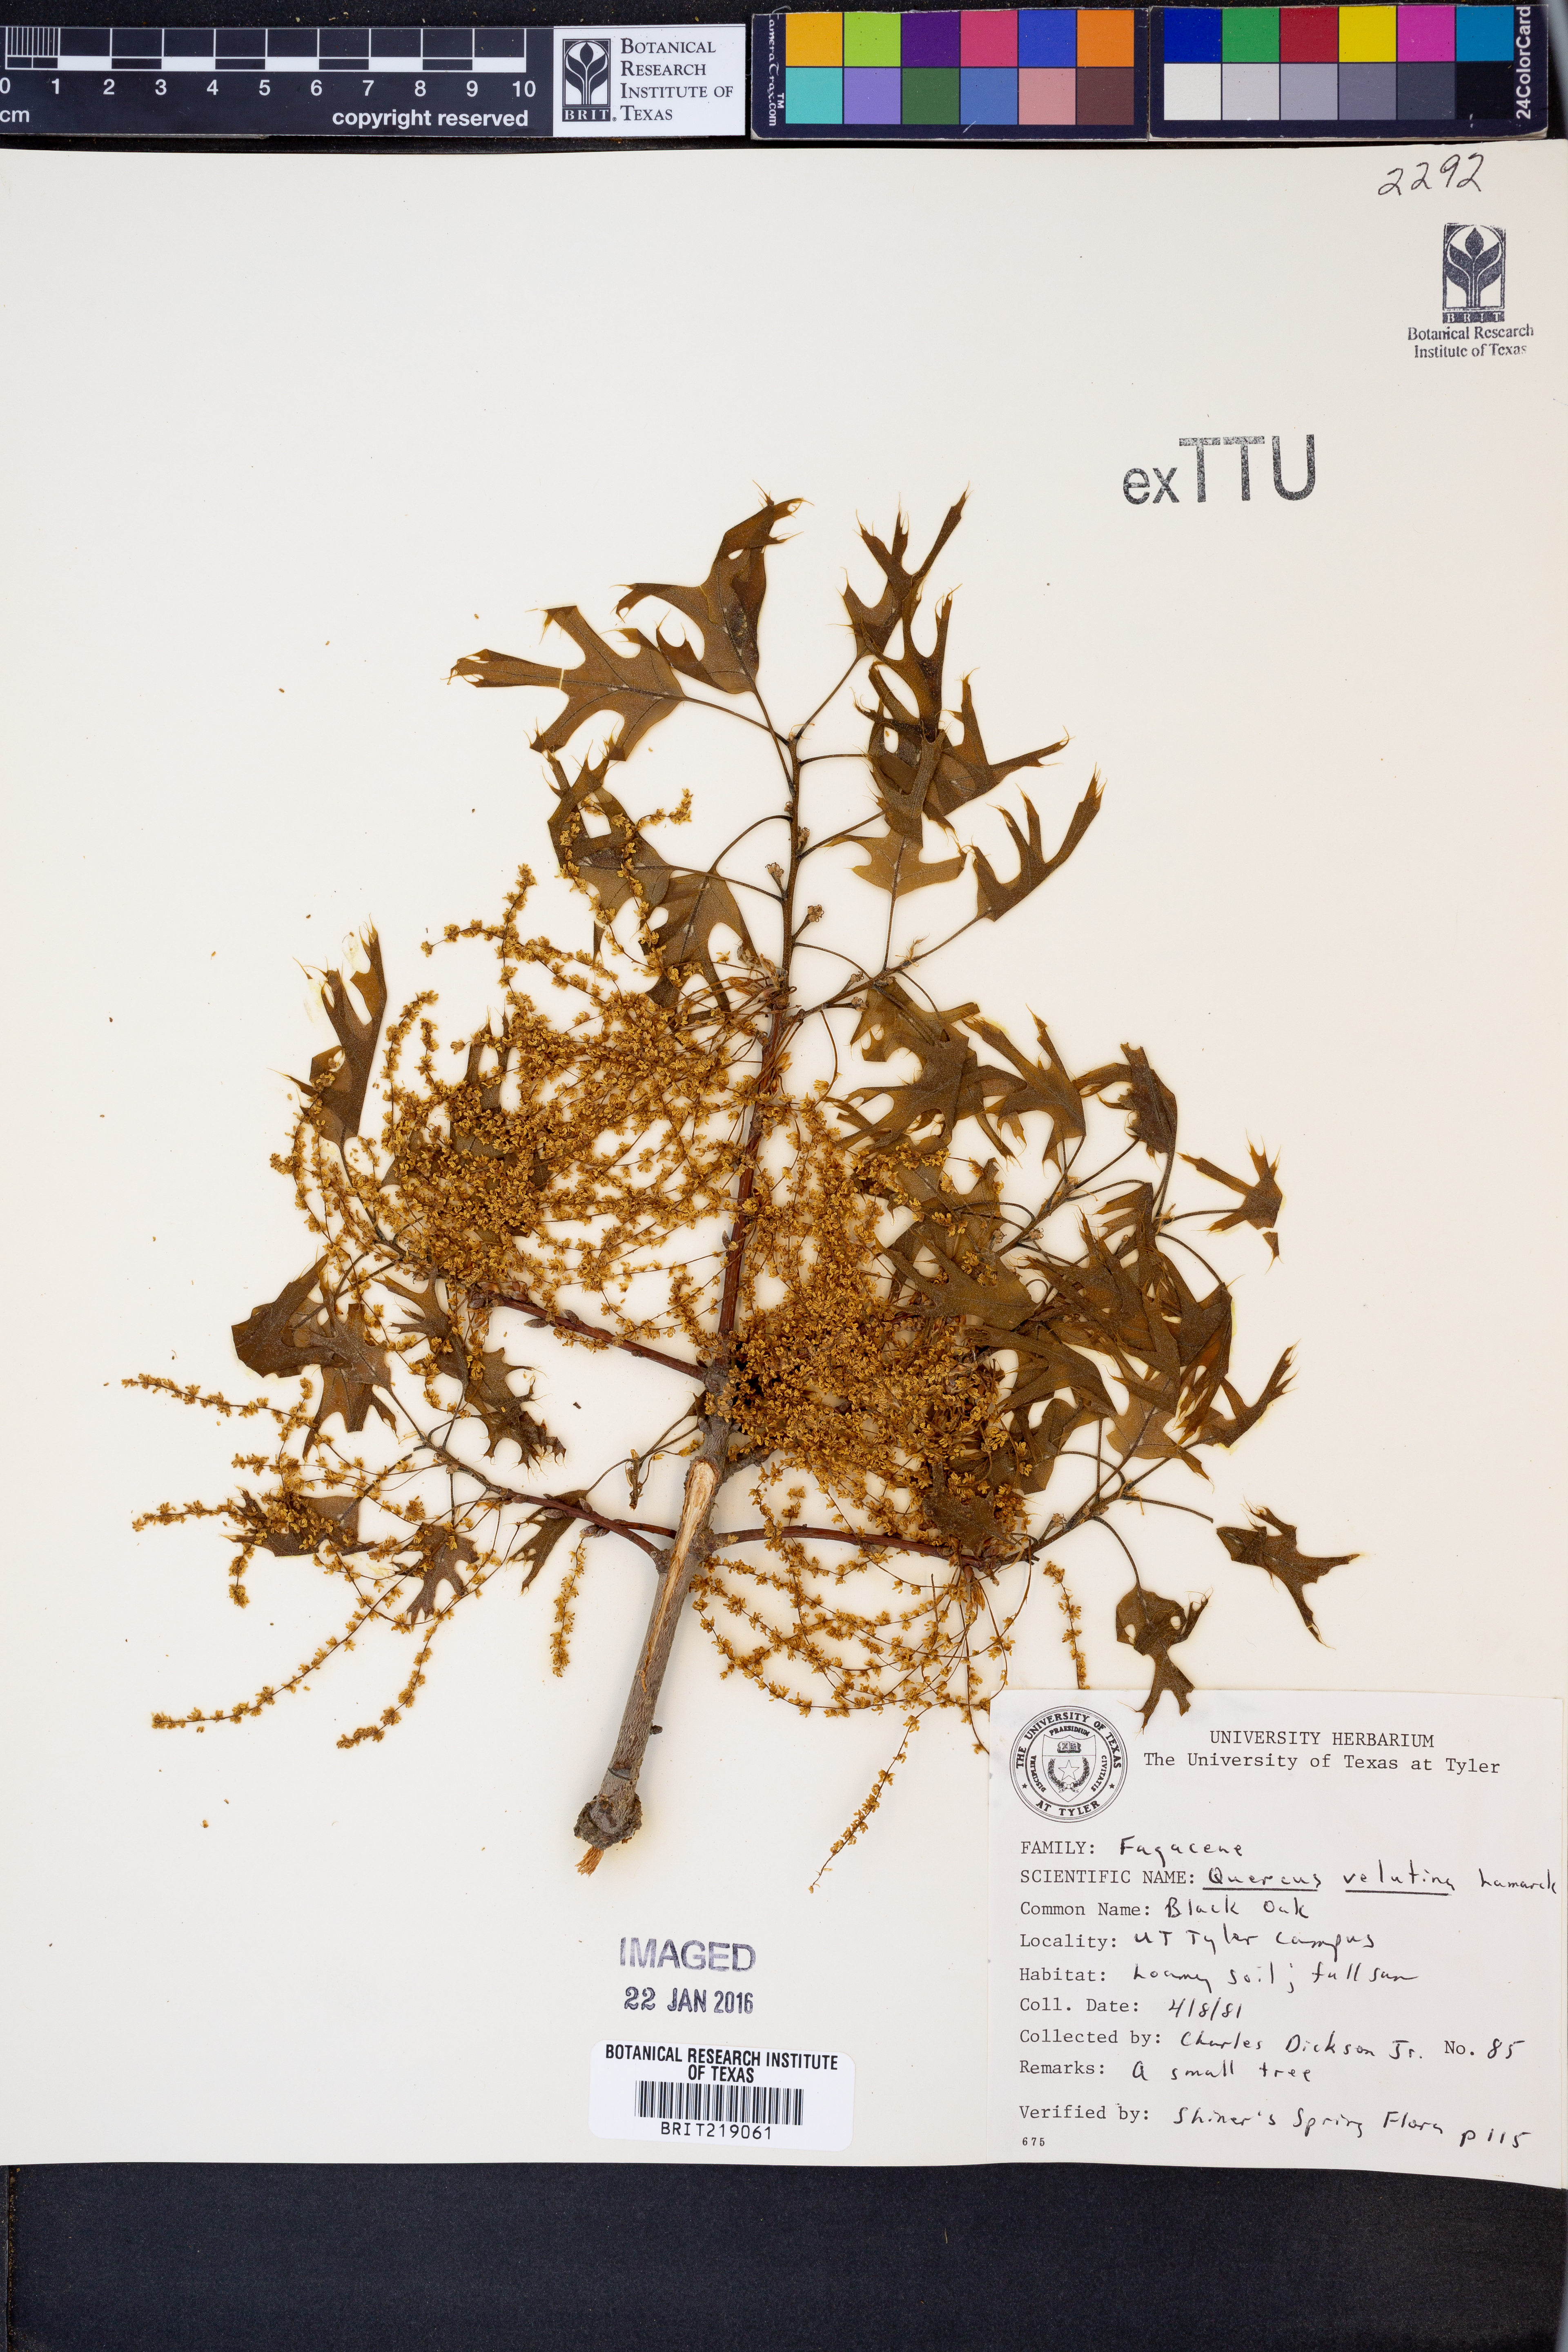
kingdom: Plantae
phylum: Tracheophyta
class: Magnoliopsida
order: Fagales
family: Fagaceae
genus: Quercus
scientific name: Quercus velutina
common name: Black oak
